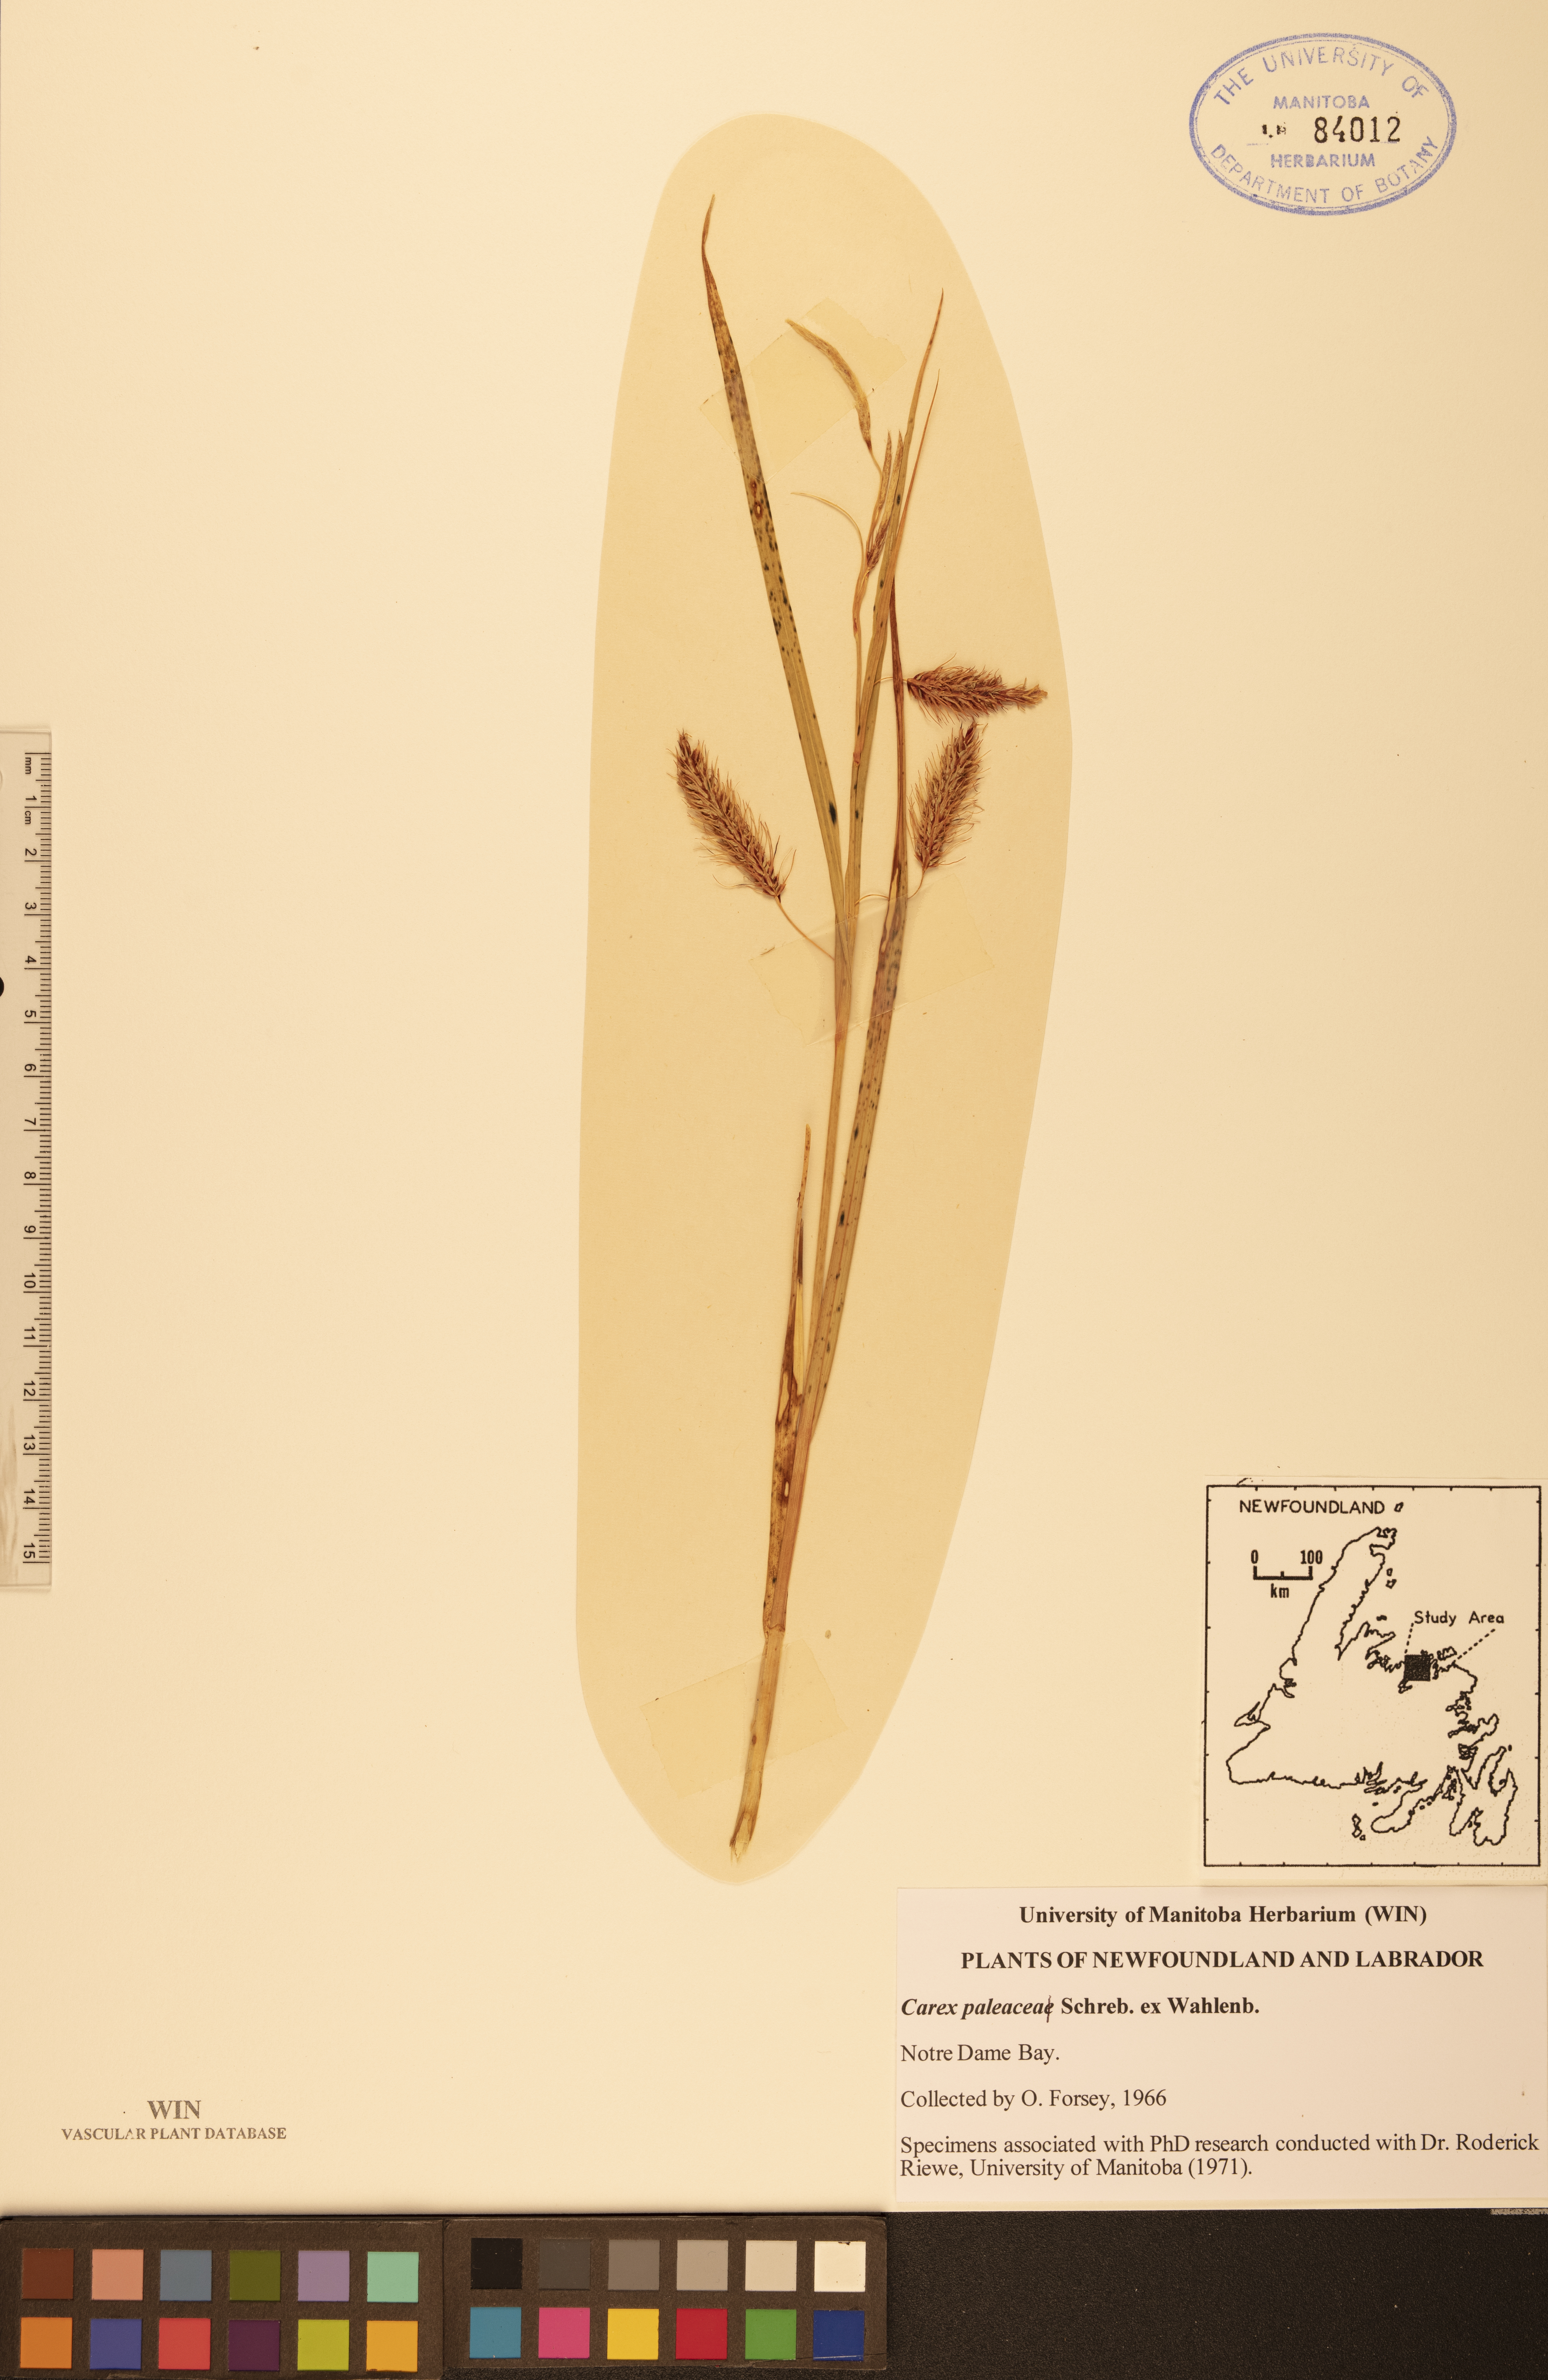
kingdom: Plantae
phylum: Tracheophyta
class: Liliopsida
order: Poales
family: Cyperaceae
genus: Carex
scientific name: Carex paleacea
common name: Chaffy sedge
